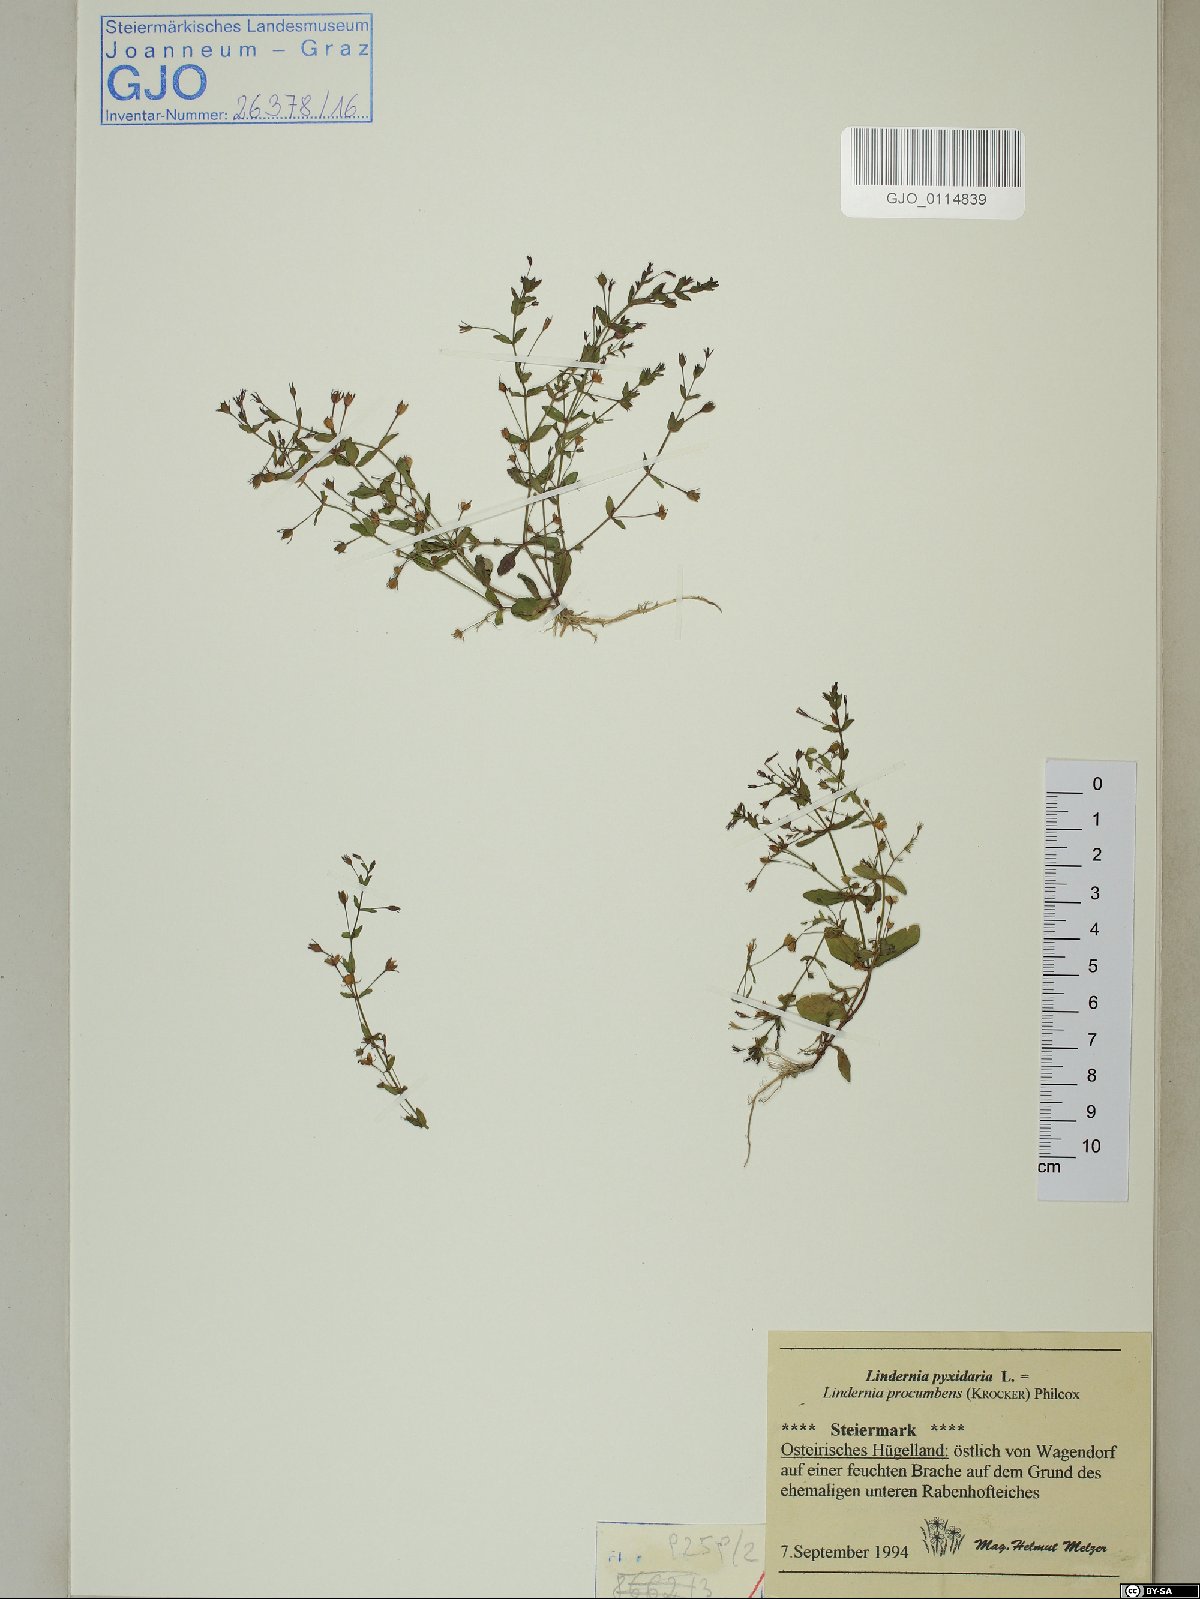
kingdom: Plantae
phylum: Tracheophyta
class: Magnoliopsida
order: Lamiales
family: Linderniaceae
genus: Lindernia
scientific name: Lindernia procumbens
